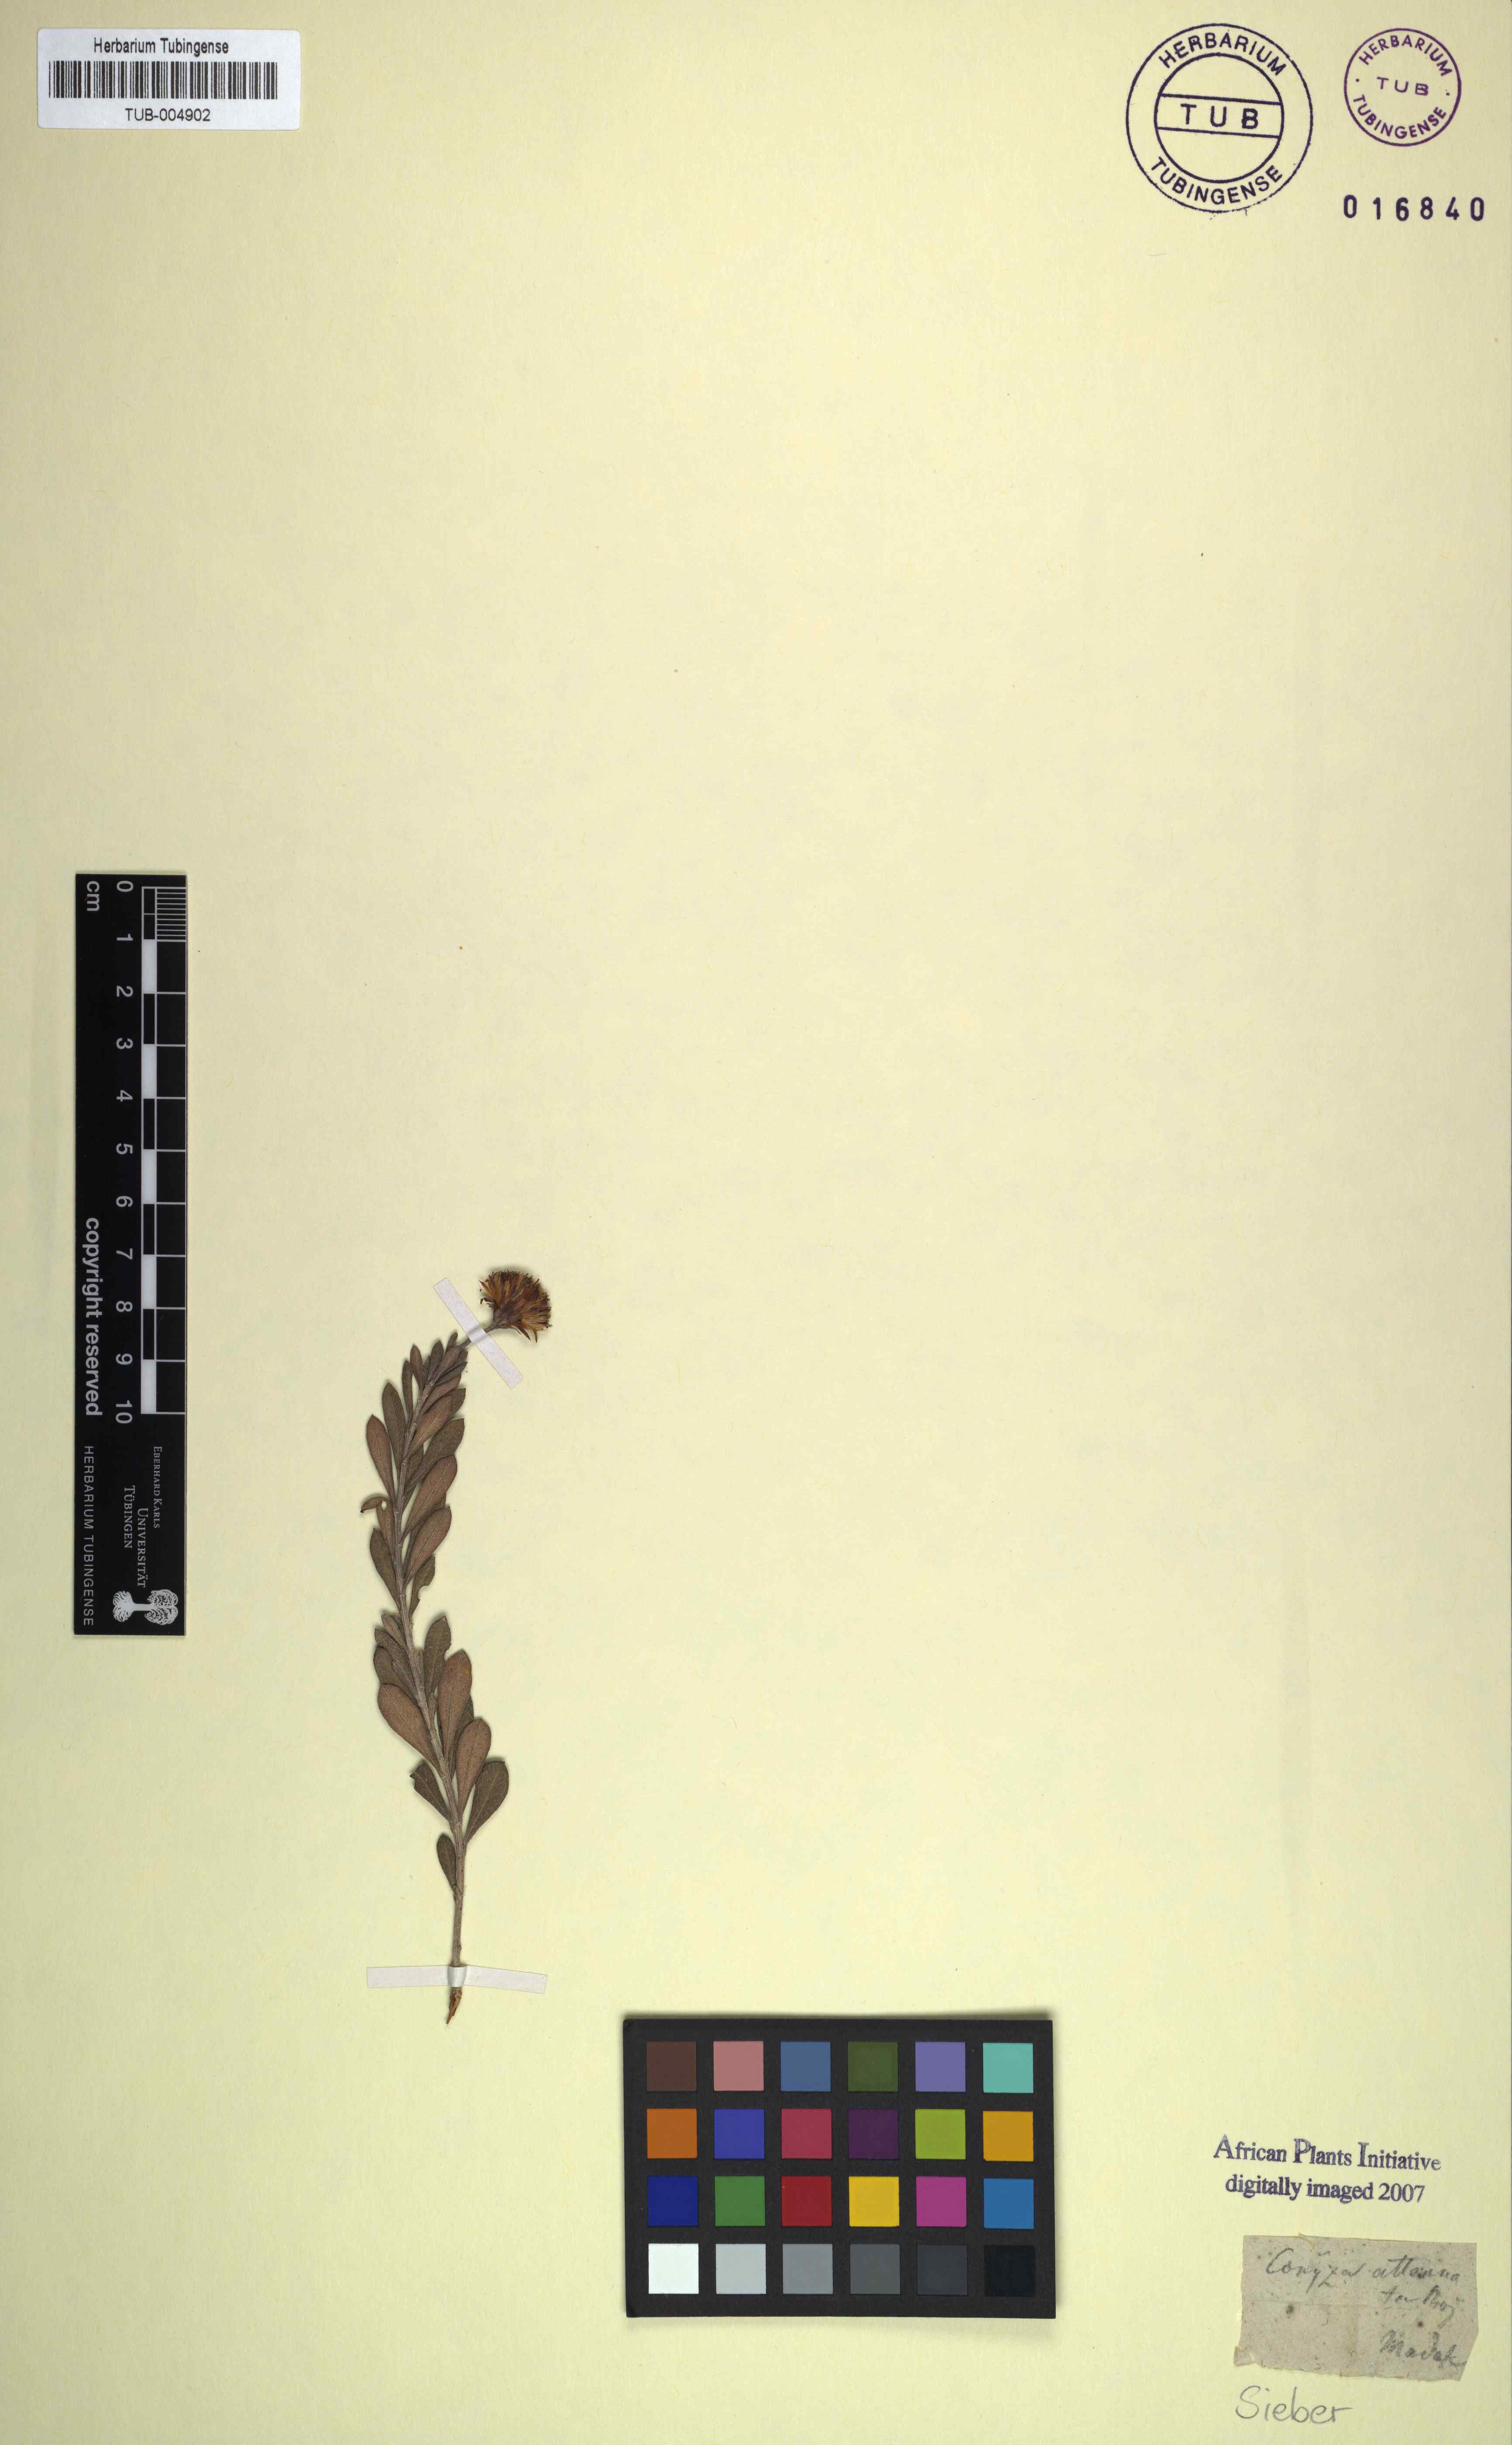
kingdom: Plantae
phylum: Tracheophyta
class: Magnoliopsida
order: Asterales
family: Asteraceae
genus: Nidorella
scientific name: Nidorella attenuata
